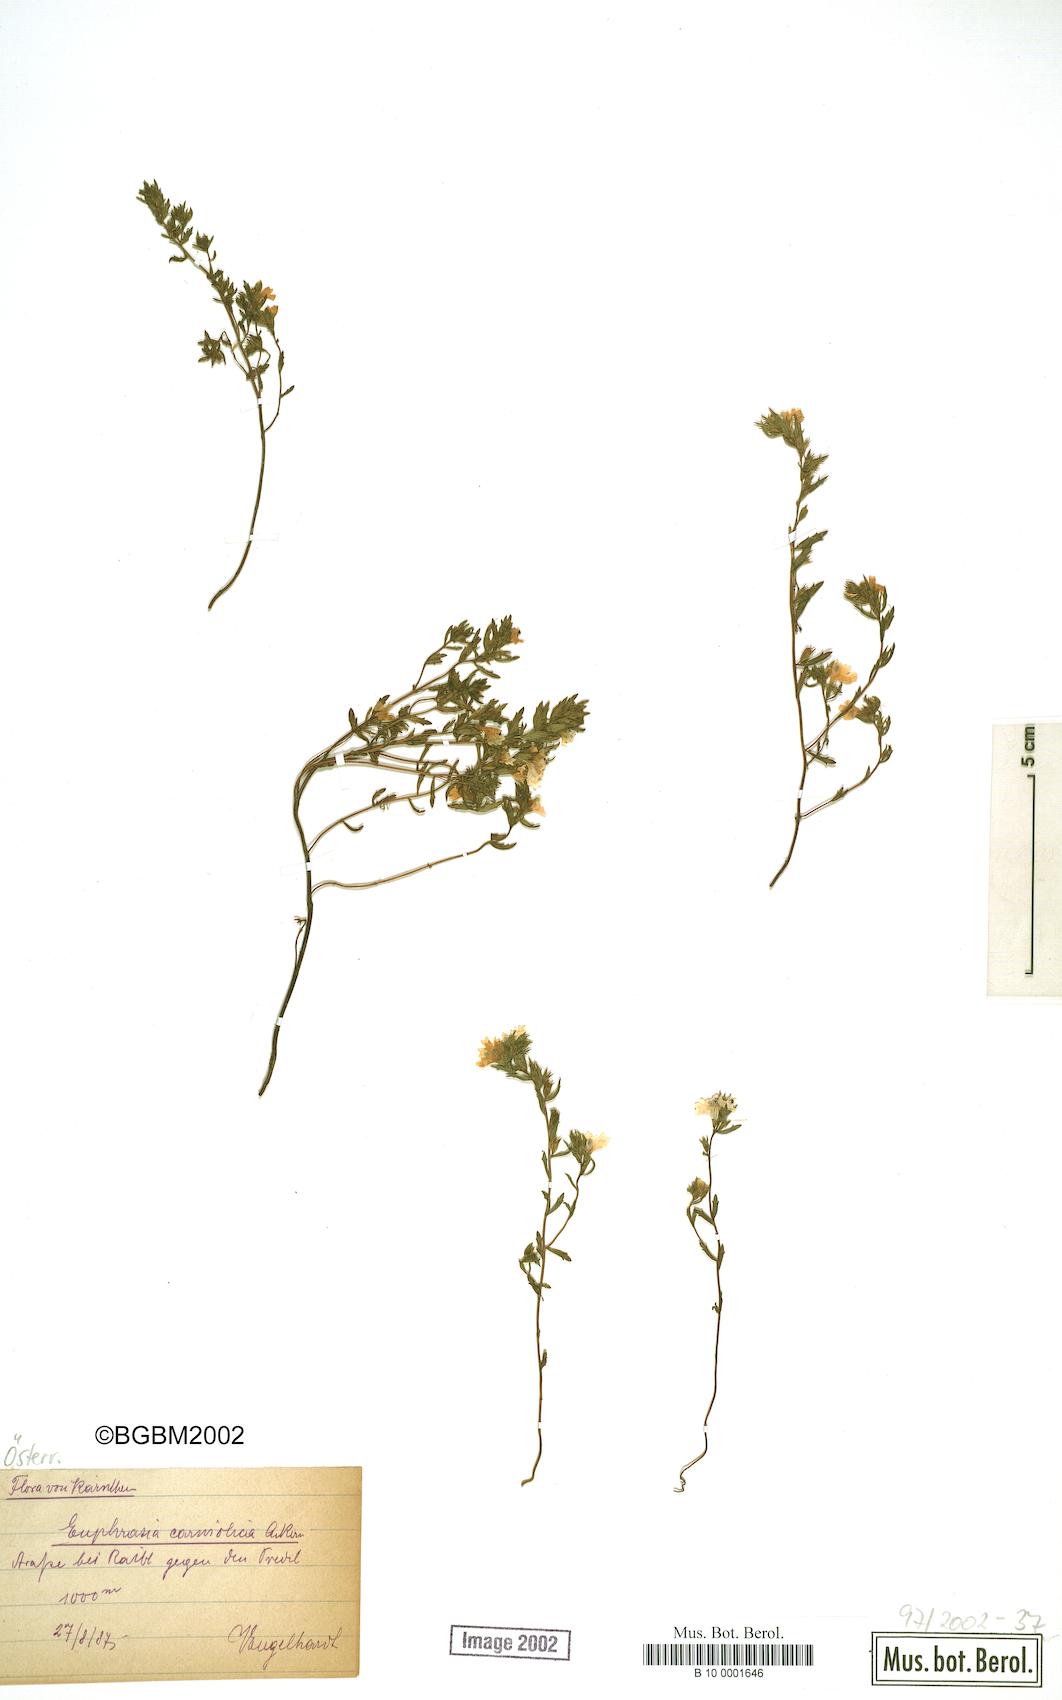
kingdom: Plantae
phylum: Tracheophyta
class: Magnoliopsida
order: Lamiales
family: Orobanchaceae
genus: Euphrasia
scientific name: Euphrasia officinalis
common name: Eyebright
